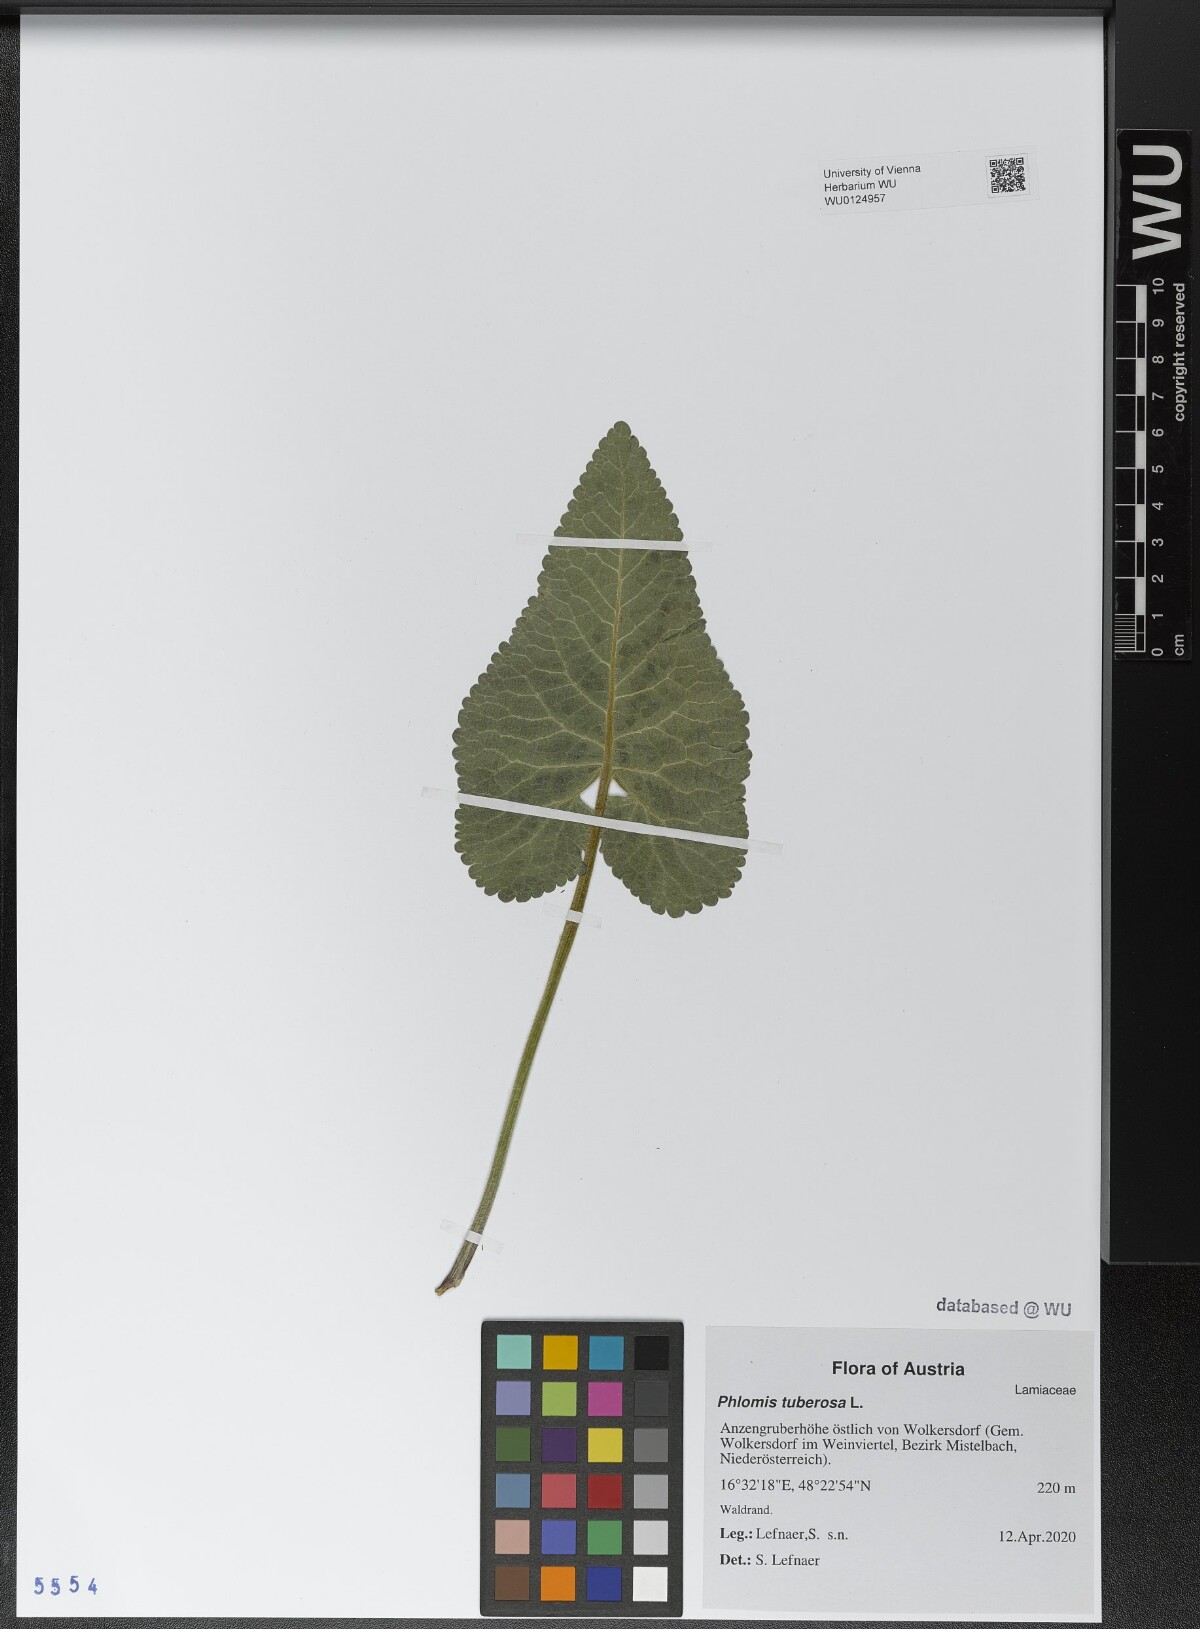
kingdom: Plantae
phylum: Tracheophyta
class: Magnoliopsida
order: Lamiales
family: Lamiaceae
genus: Phlomoides
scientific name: Phlomoides tuberosa
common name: Tuberous jerusalem sage
